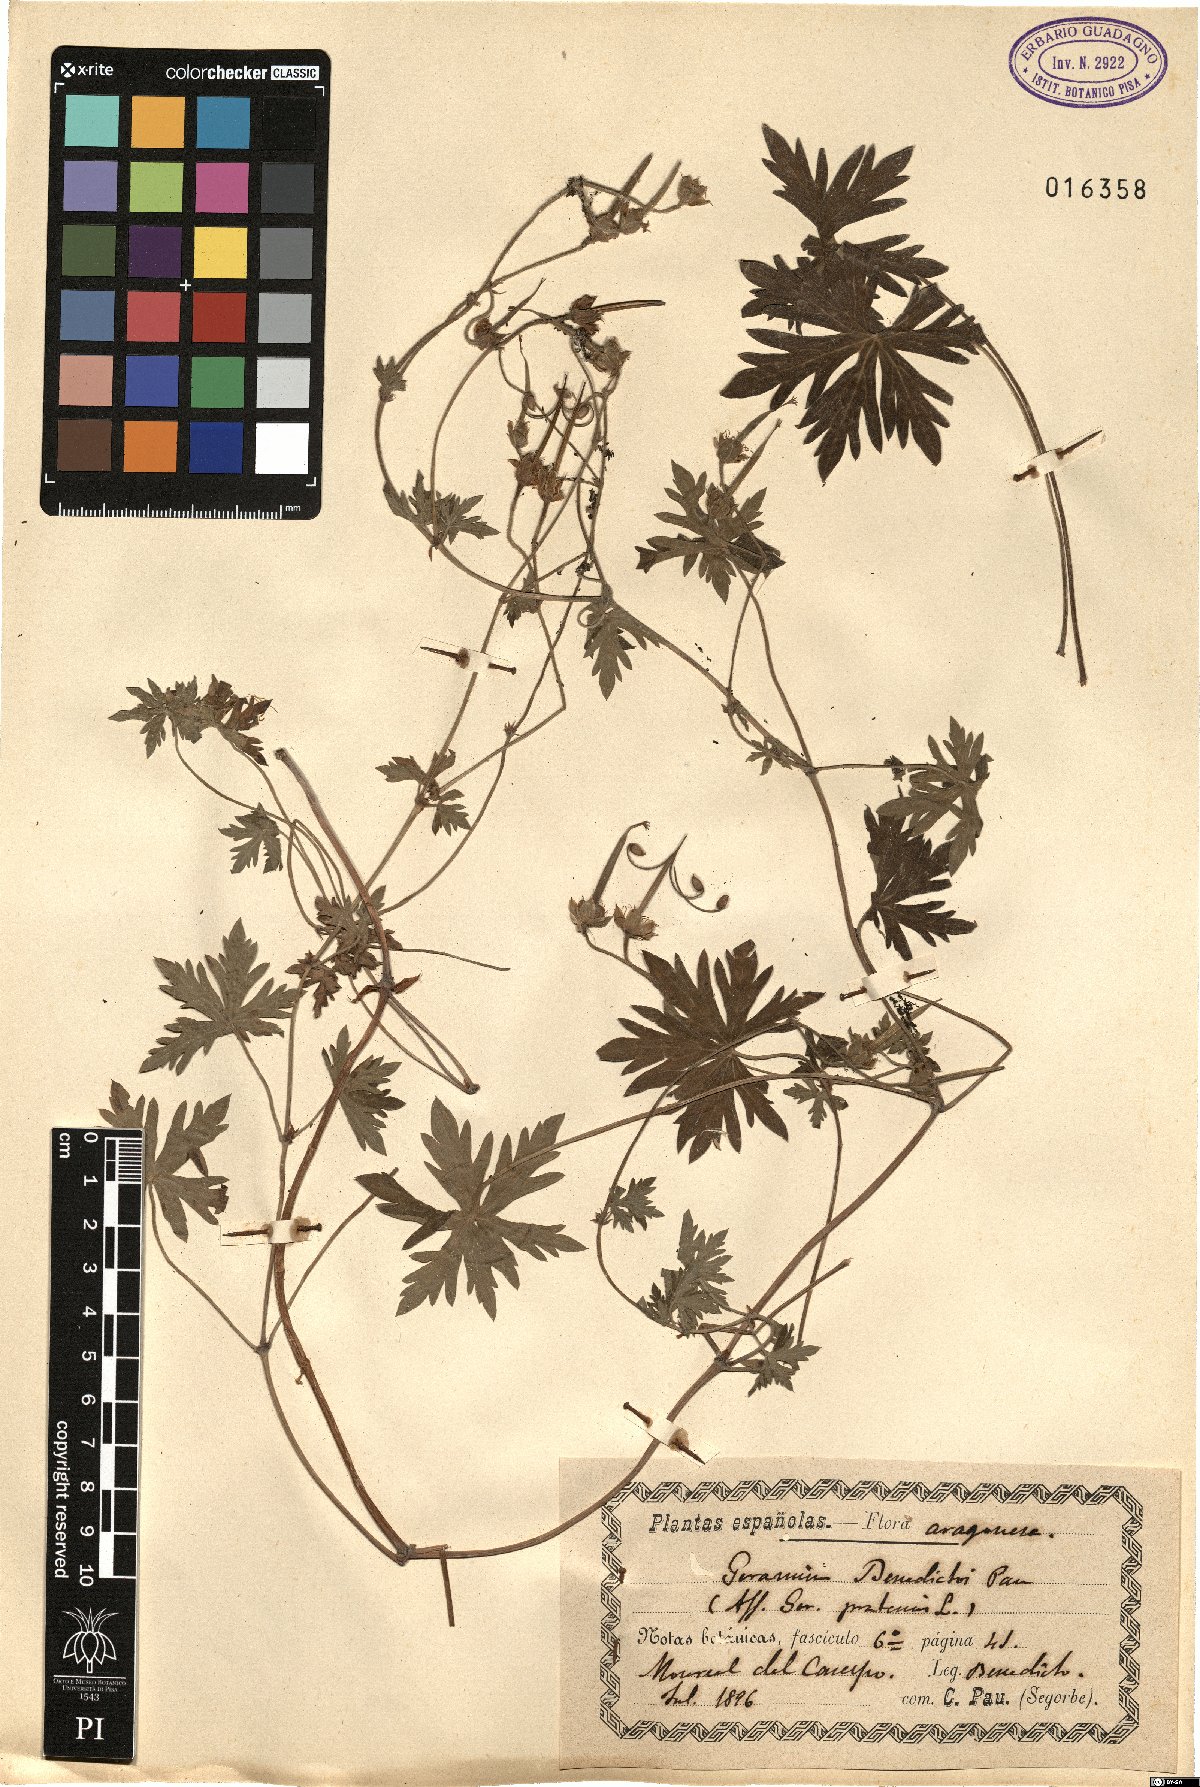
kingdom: Plantae
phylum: Tracheophyta
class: Magnoliopsida
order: Geraniales
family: Geraniaceae
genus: Geranium
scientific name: Geranium collinum
